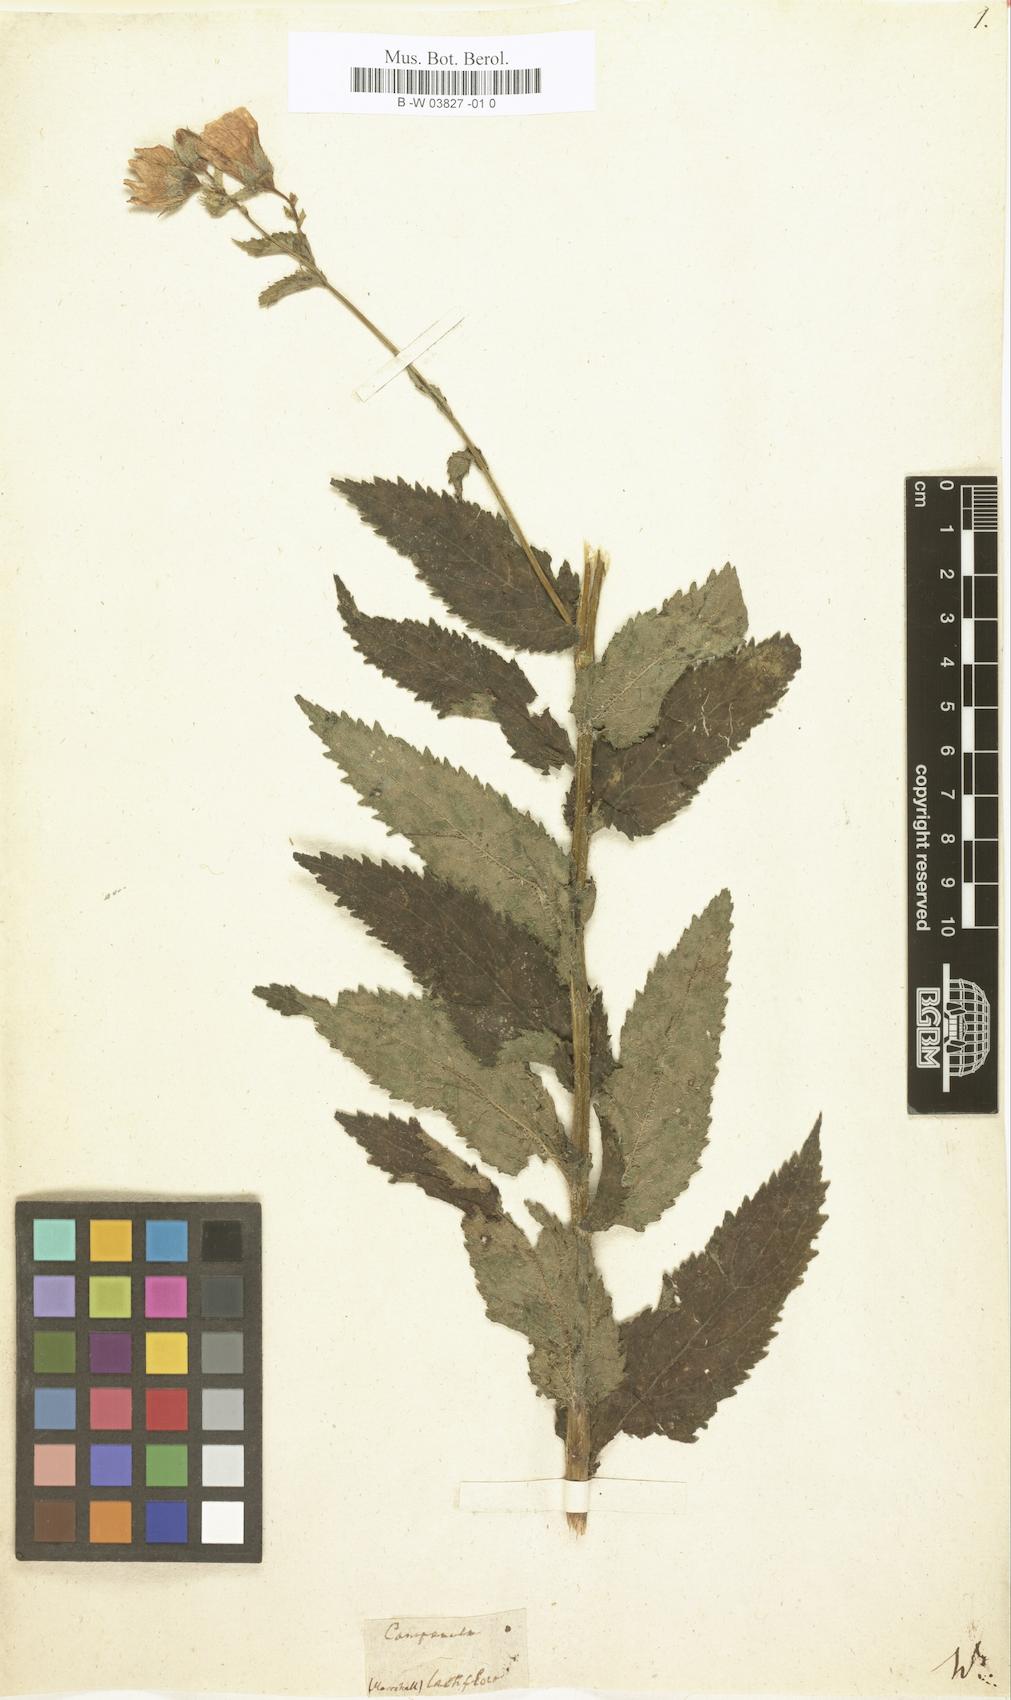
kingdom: Plantae
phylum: Tracheophyta
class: Magnoliopsida
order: Asterales
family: Campanulaceae
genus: Campanula
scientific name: Campanula lactiflora
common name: Milky bellflower
